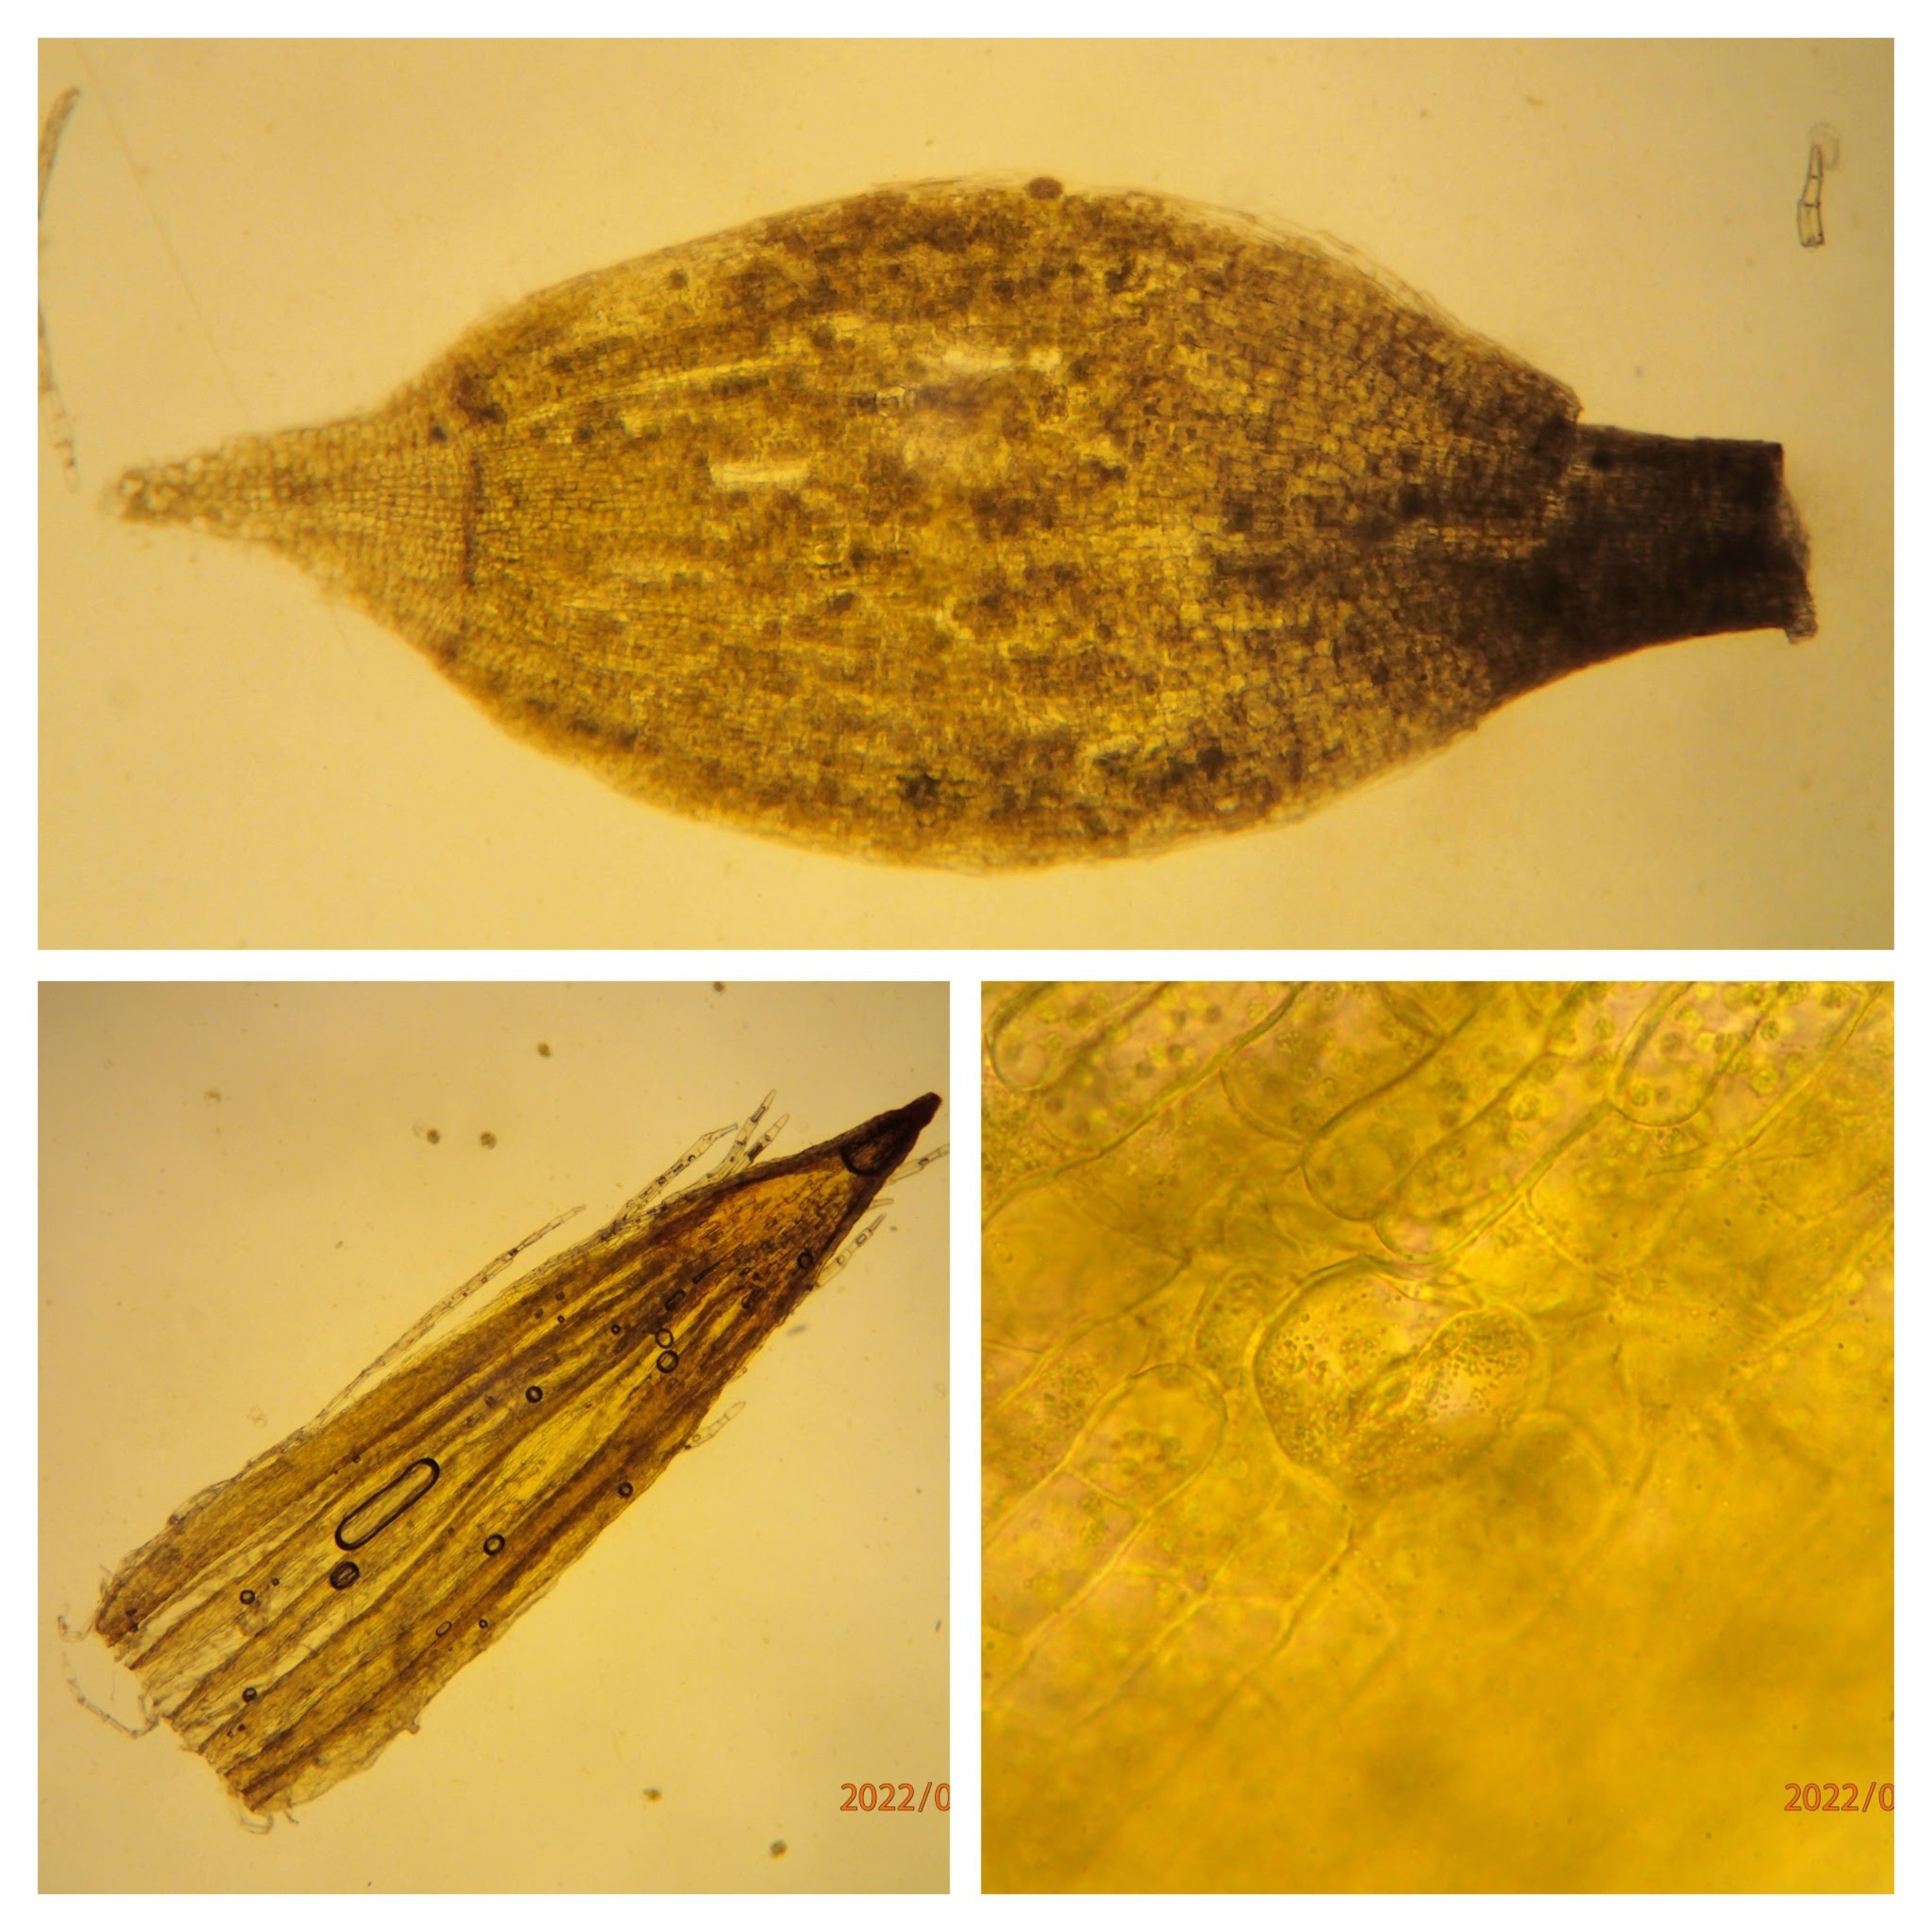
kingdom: Plantae
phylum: Bryophyta
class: Bryopsida
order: Orthotrichales
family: Orthotrichaceae
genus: Lewinskya
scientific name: Lewinskya speciosa
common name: Kortstribet furehætte
